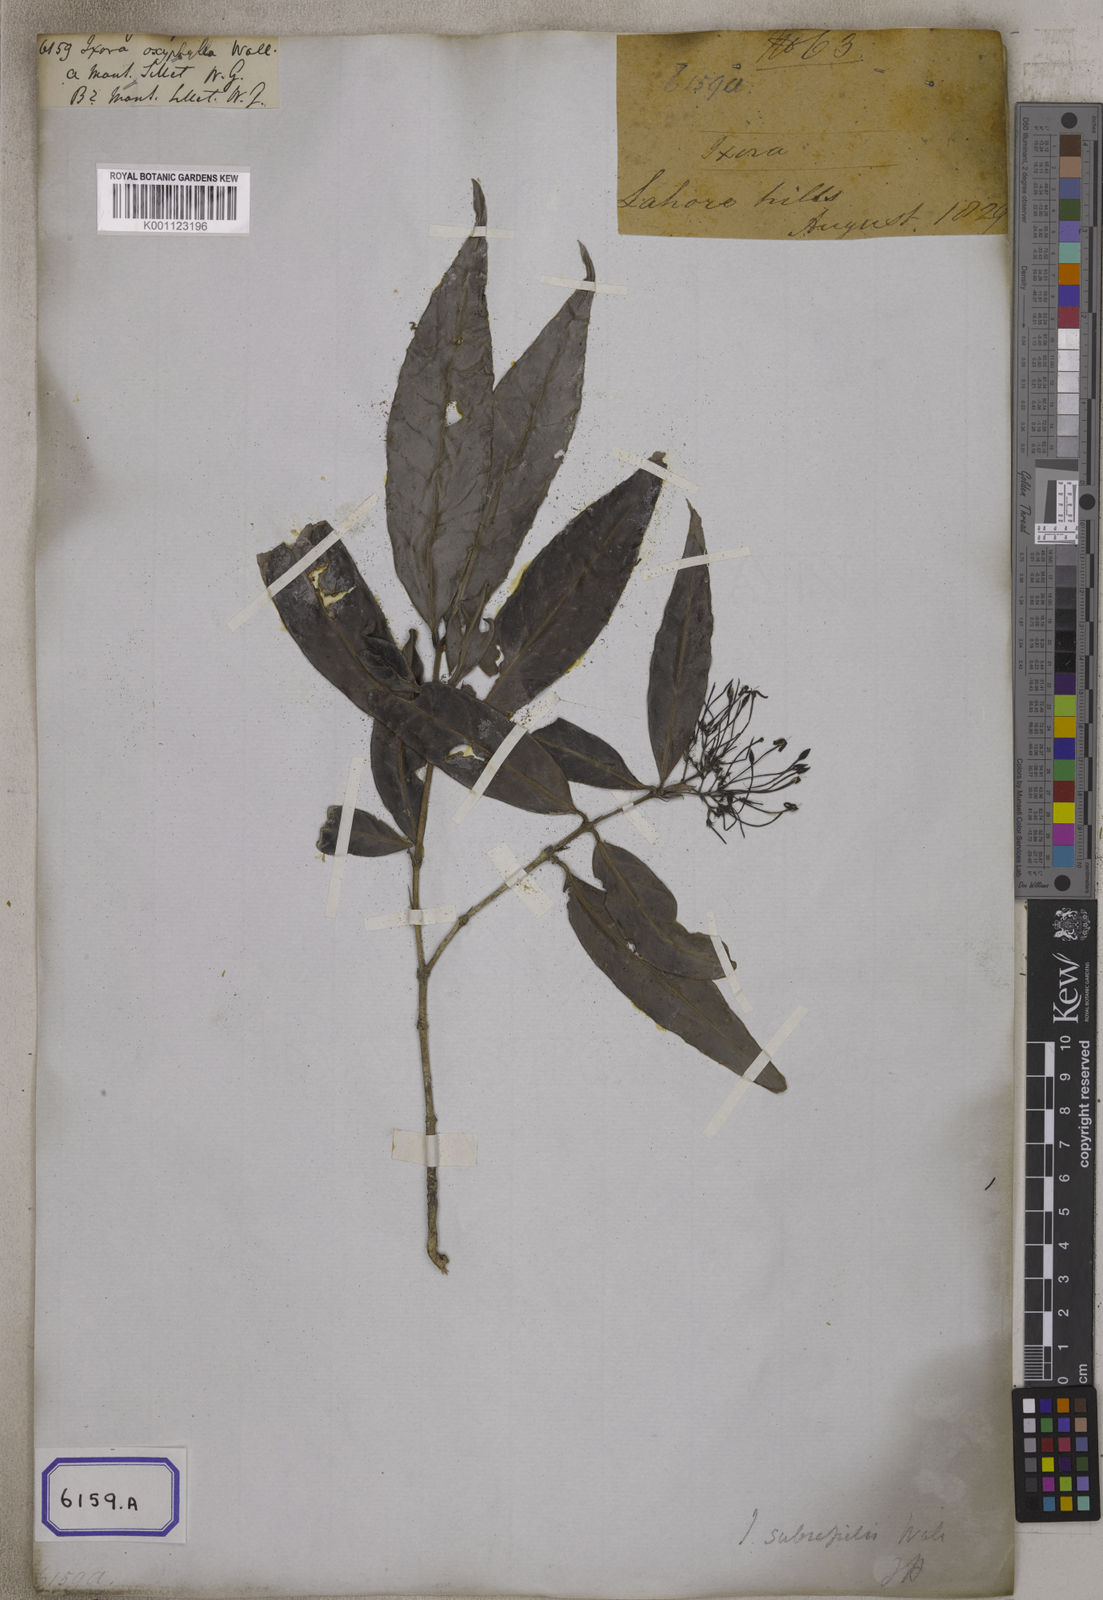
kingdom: Plantae
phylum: Tracheophyta
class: Magnoliopsida
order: Gentianales
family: Rubiaceae
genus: Ixora
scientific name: Ixora
